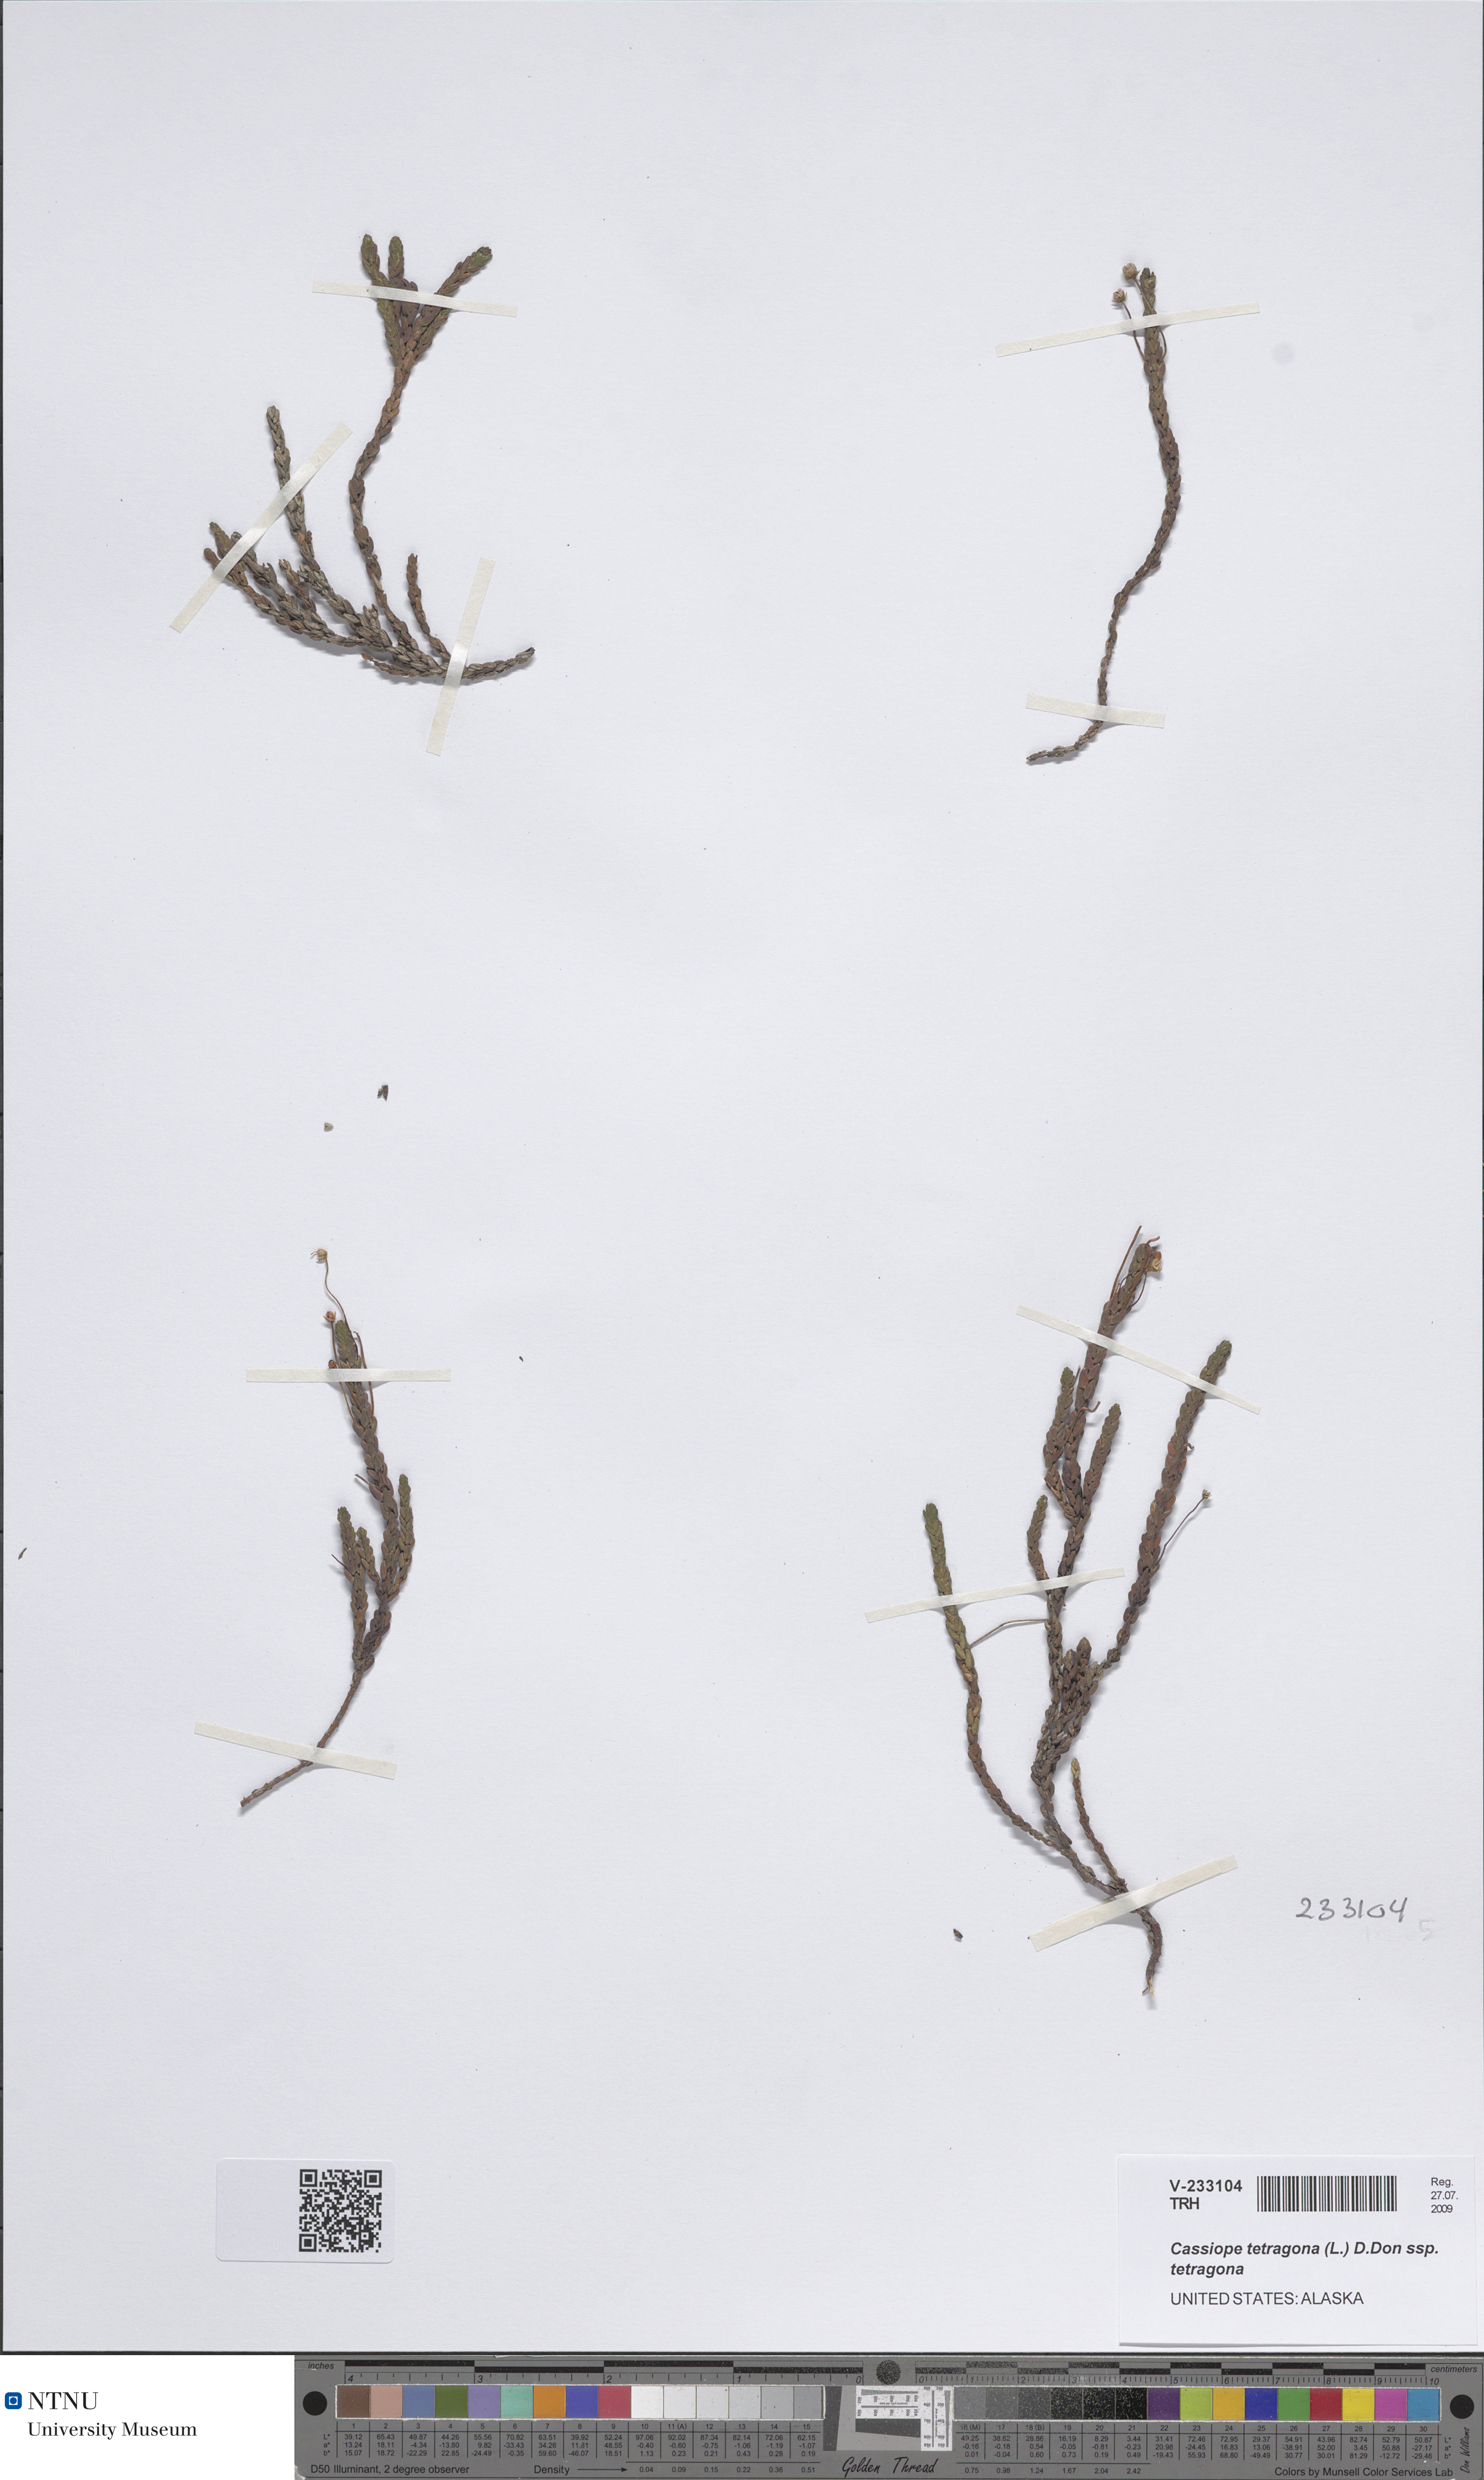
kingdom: Plantae
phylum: Tracheophyta
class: Magnoliopsida
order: Ericales
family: Ericaceae
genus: Cassiope
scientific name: Cassiope tetragona
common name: Arctic bell heather
